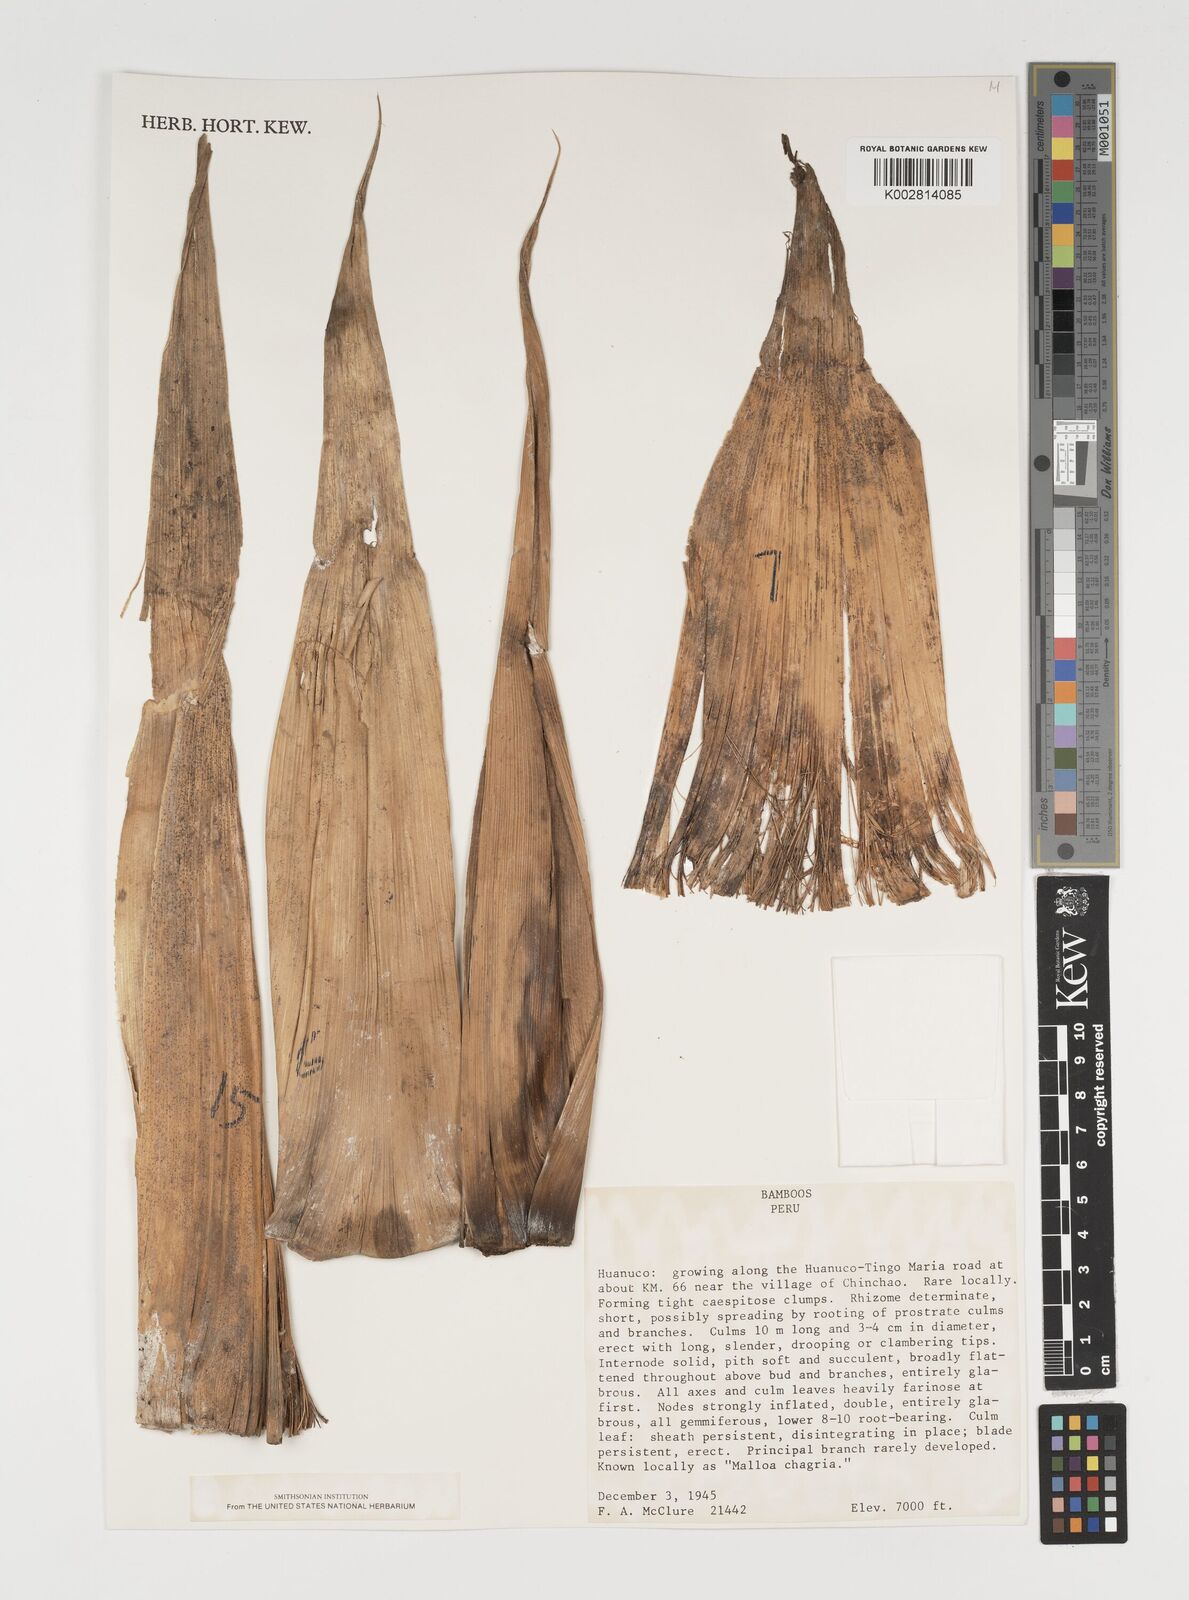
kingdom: Plantae
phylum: Tracheophyta
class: Liliopsida
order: Poales
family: Poaceae
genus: Chusquea
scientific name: Chusquea
